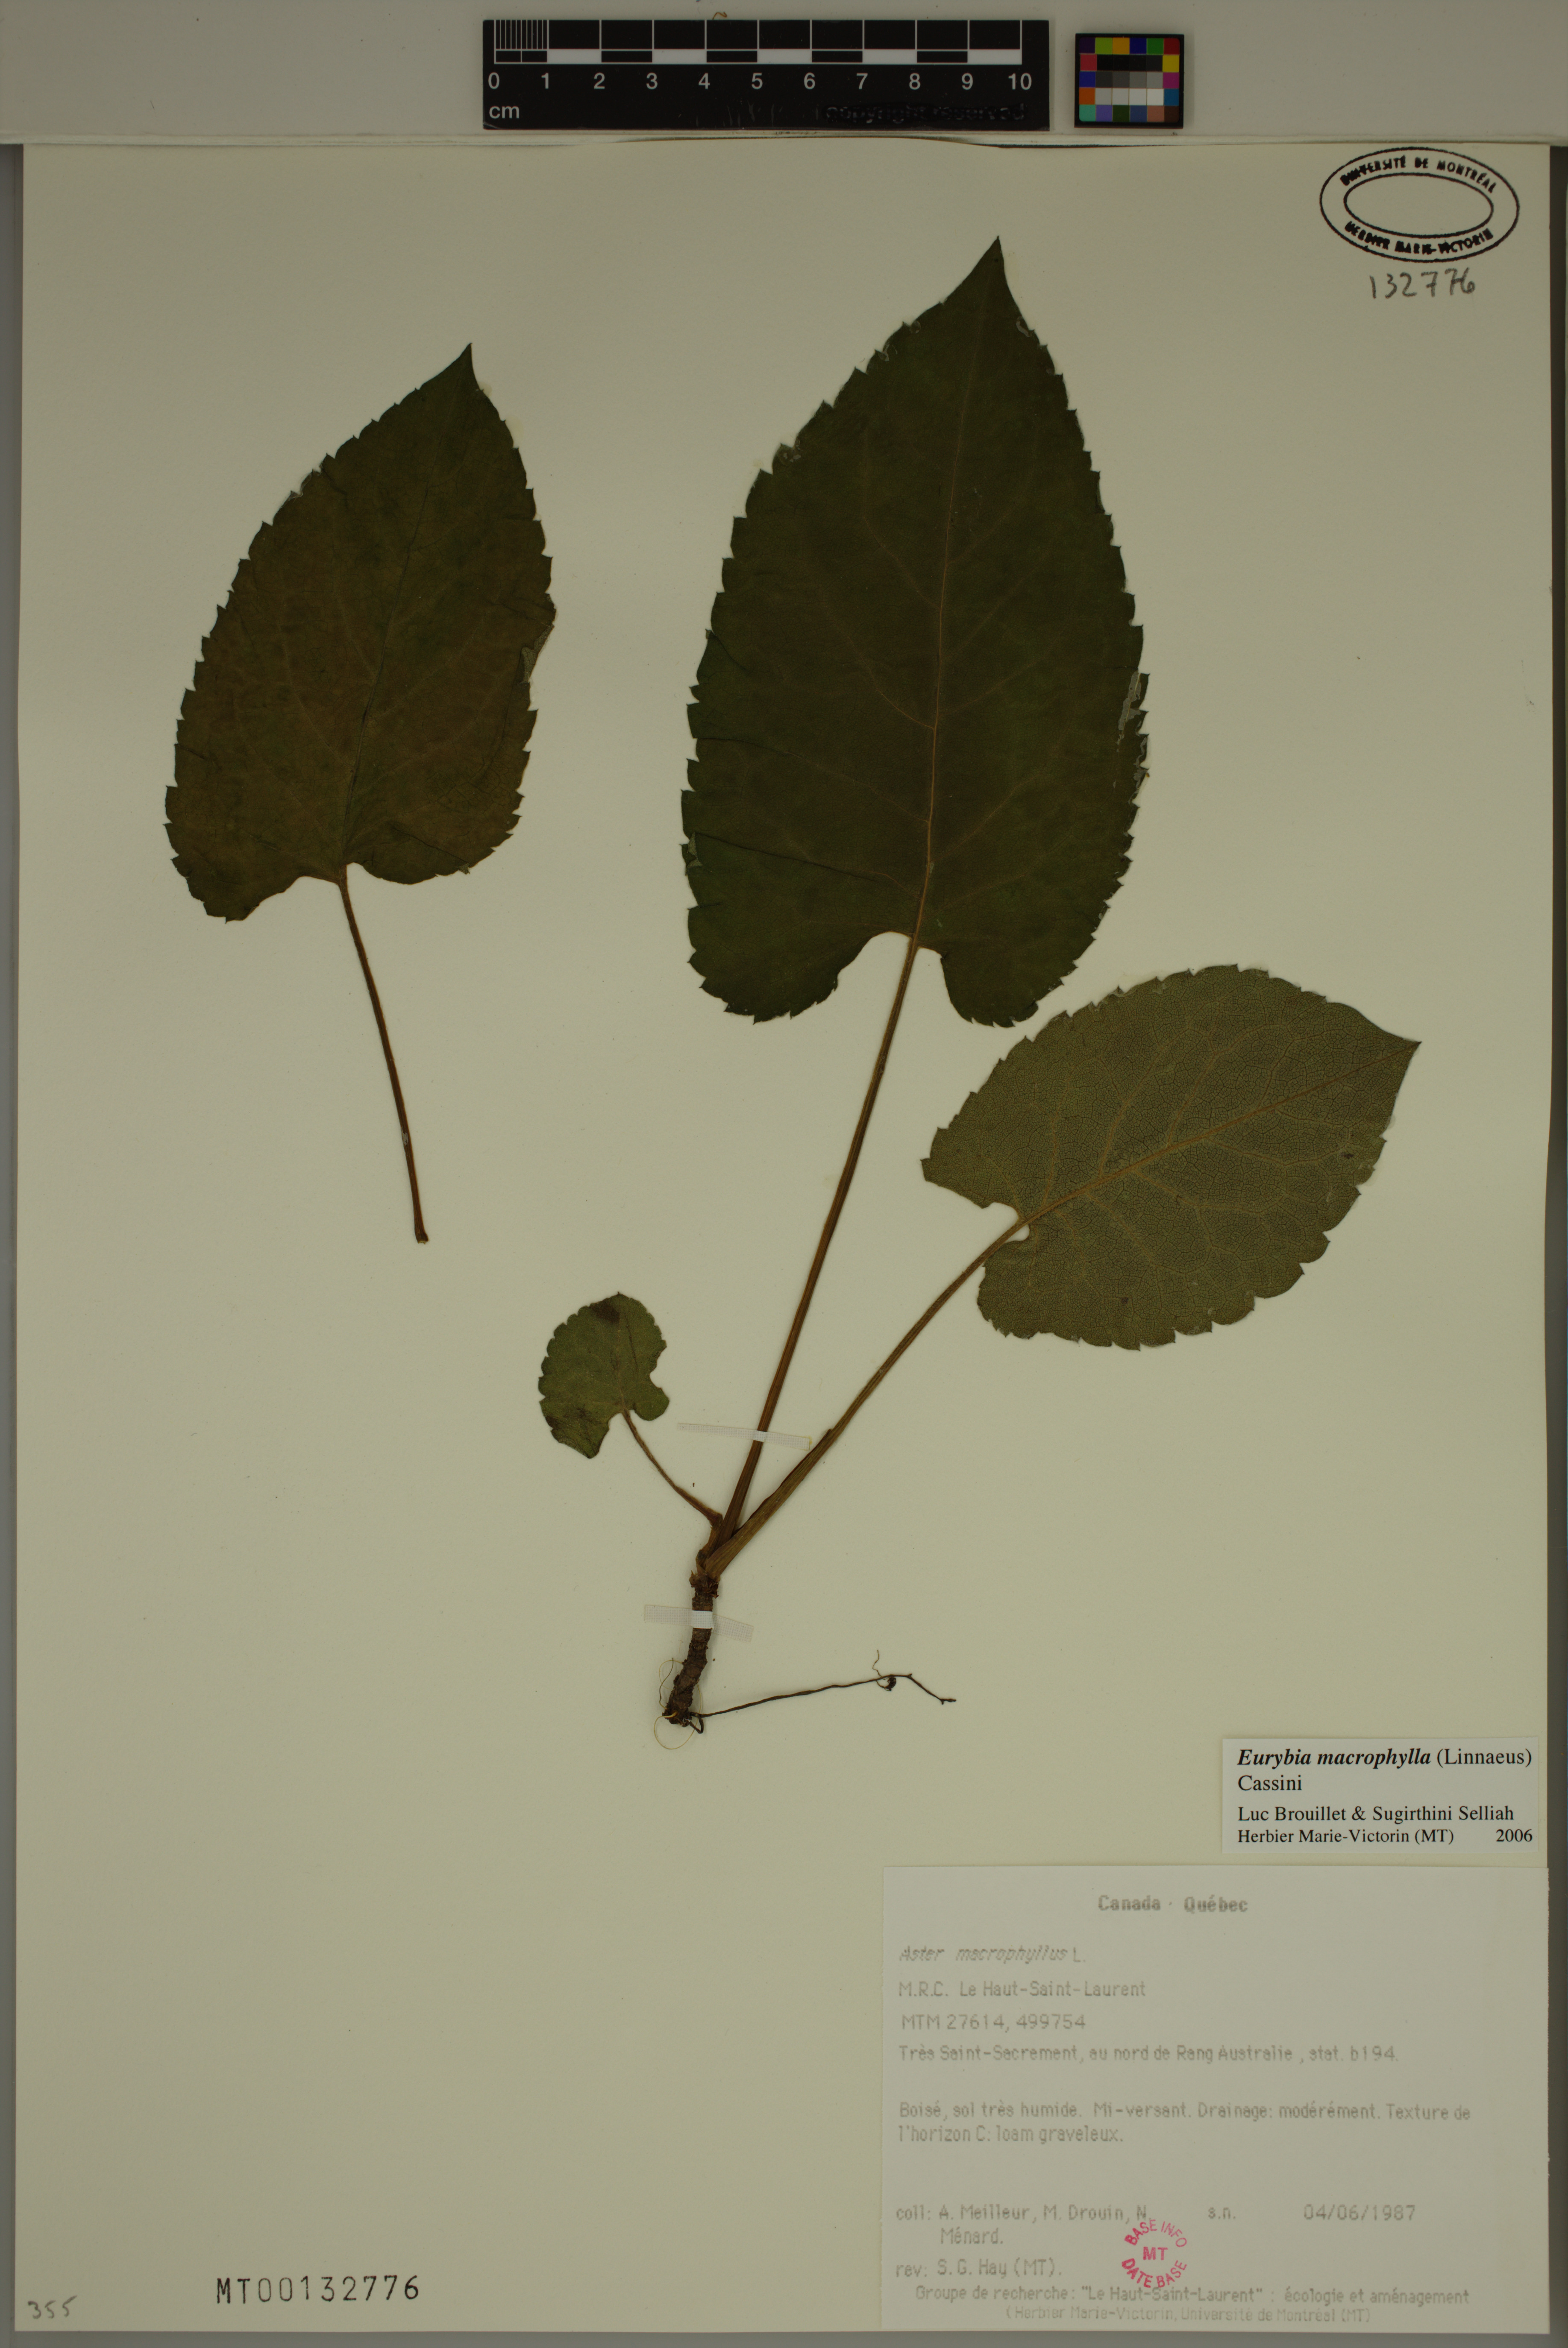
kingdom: Plantae
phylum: Tracheophyta
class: Magnoliopsida
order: Asterales
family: Asteraceae
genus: Eurybia
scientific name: Eurybia macrophylla
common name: Big-leaved aster
